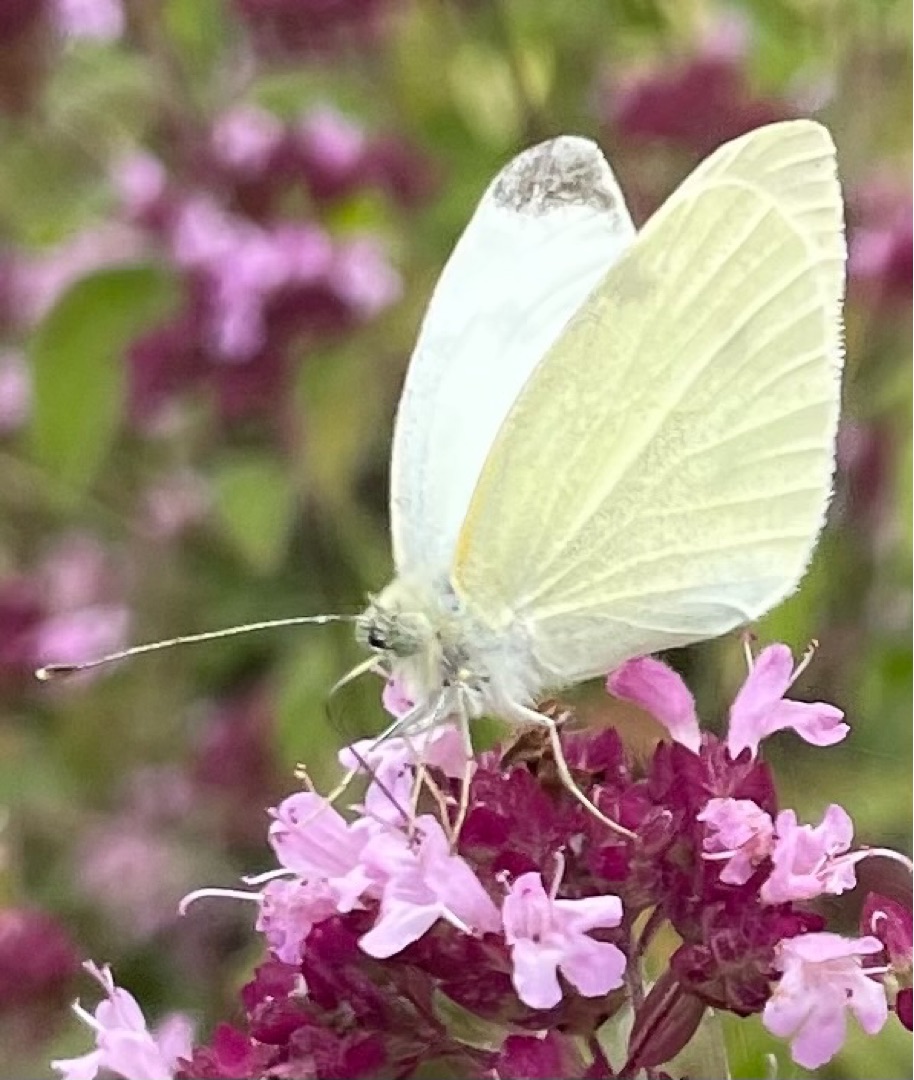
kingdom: Animalia
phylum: Arthropoda
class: Insecta
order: Lepidoptera
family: Pieridae
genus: Pieris
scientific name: Pieris rapae
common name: Lille kålsommerfugl
